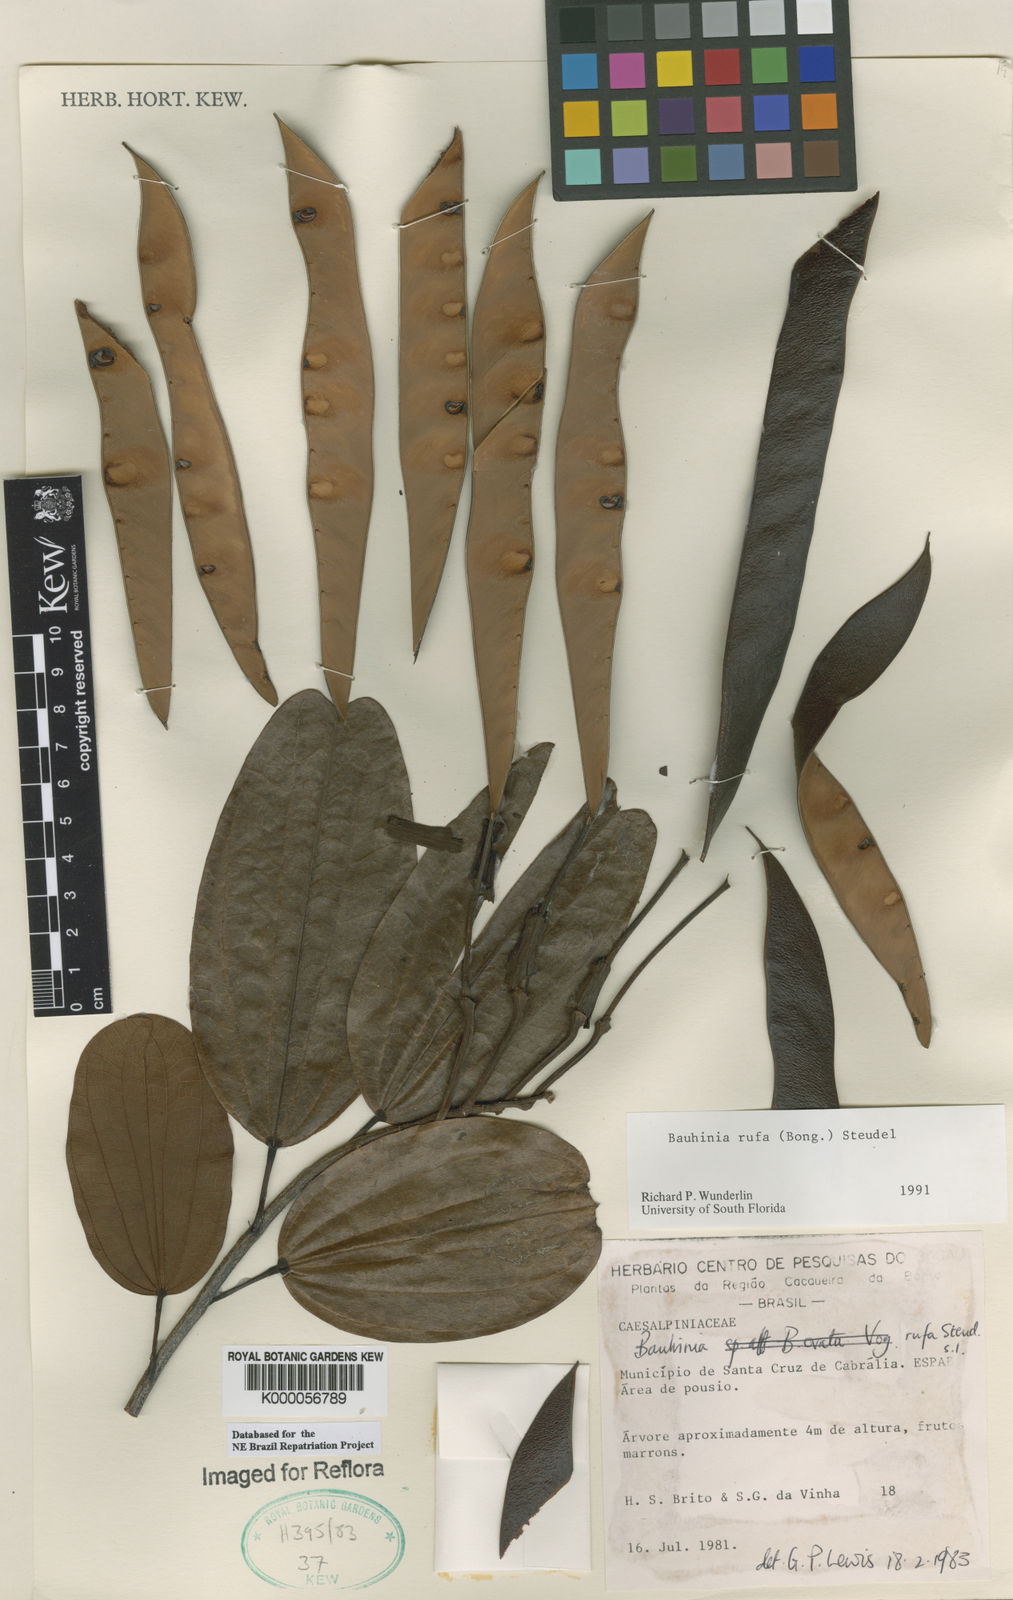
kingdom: Plantae
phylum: Tracheophyta
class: Magnoliopsida
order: Fabales
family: Fabaceae
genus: Bauhinia
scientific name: Bauhinia rufa
